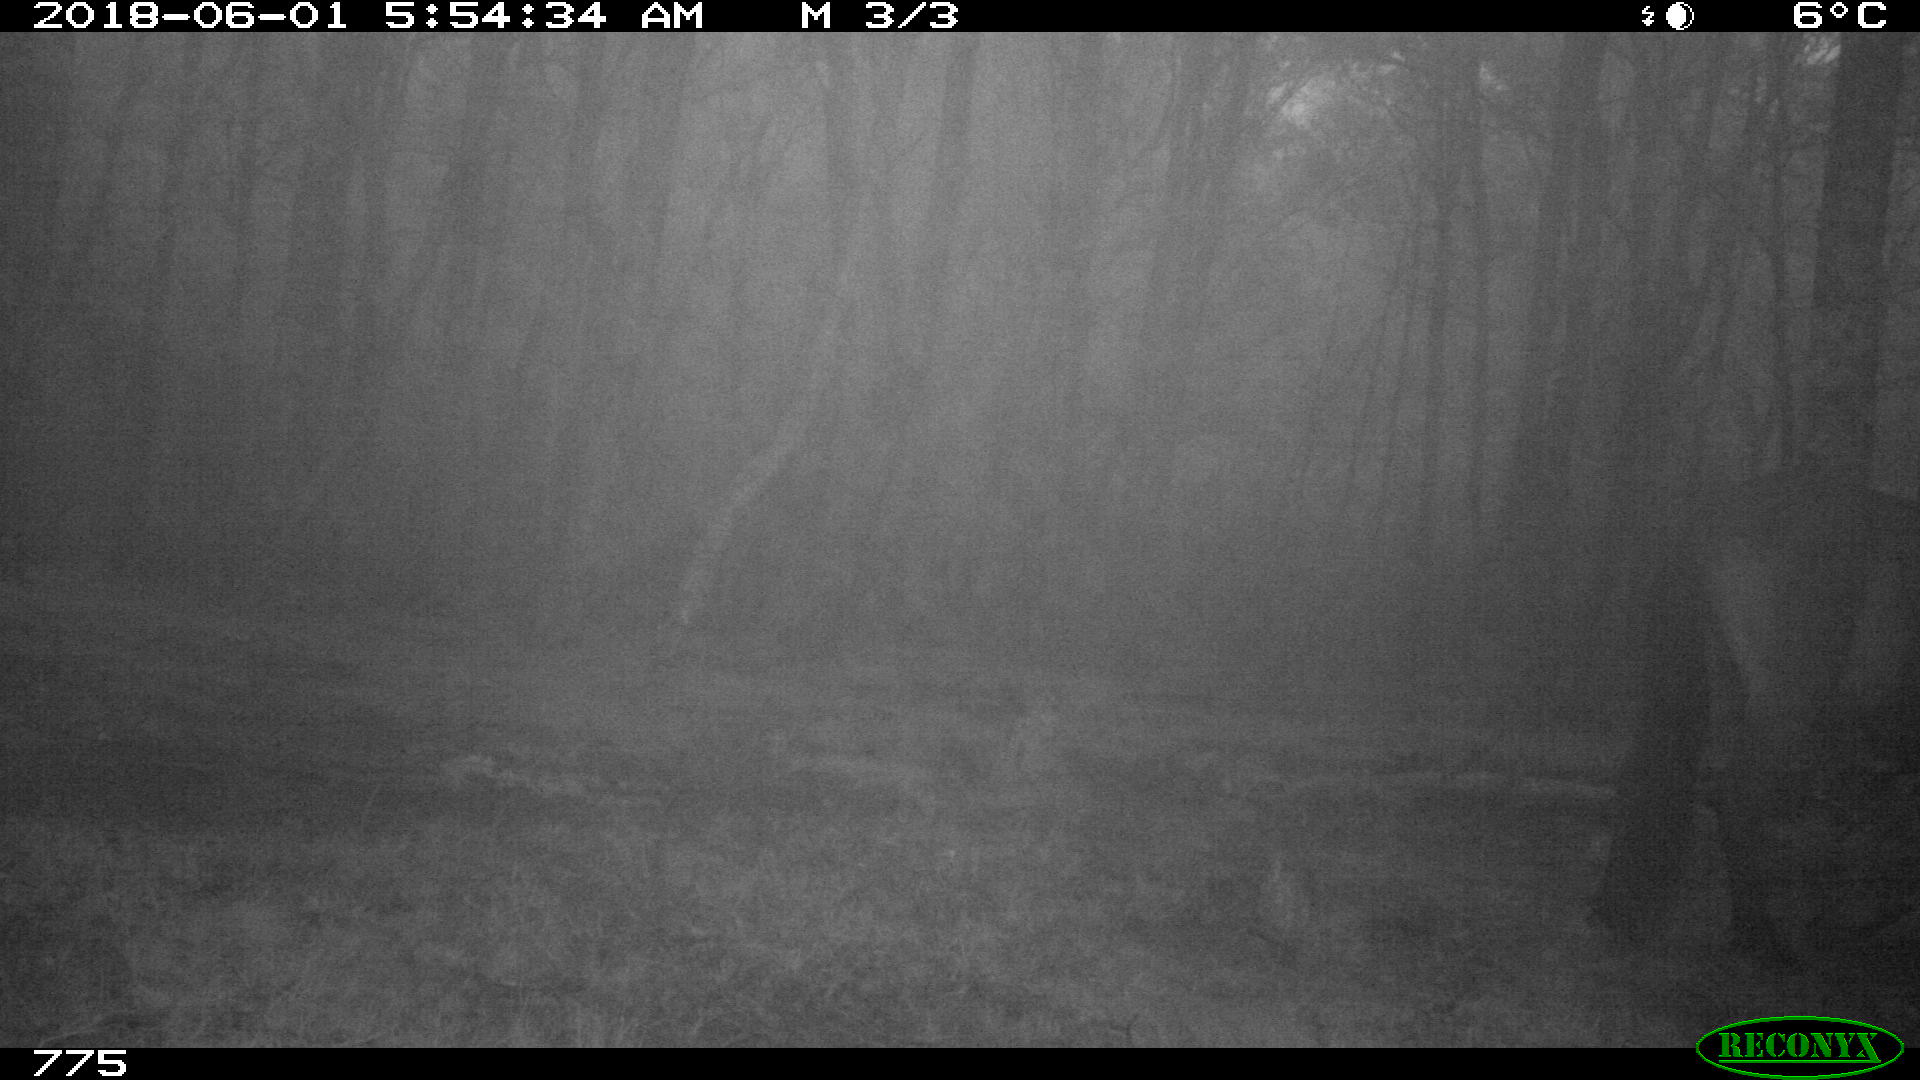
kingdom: Animalia
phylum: Chordata
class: Mammalia
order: Perissodactyla
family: Equidae
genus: Equus
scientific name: Equus caballus
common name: Horse
